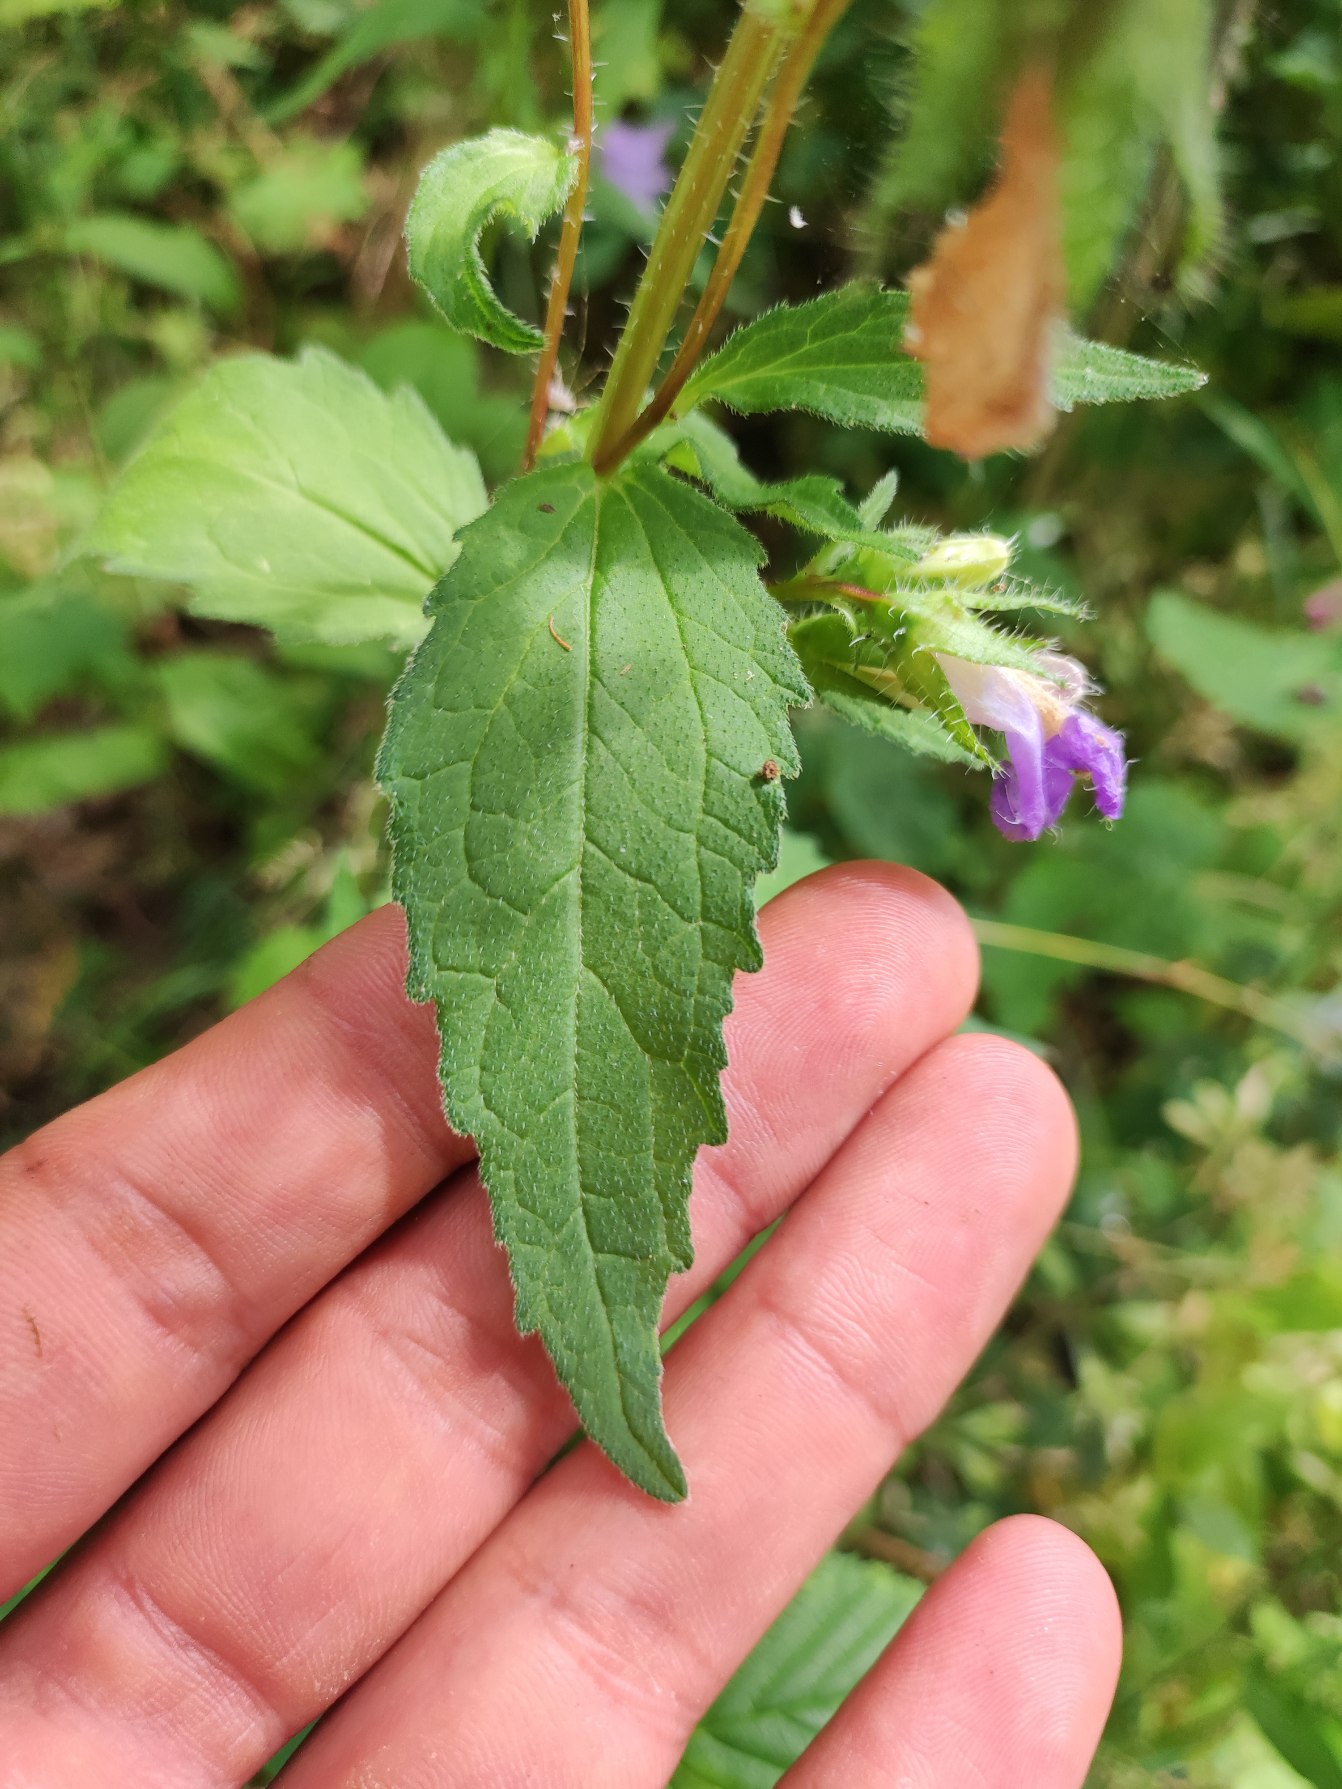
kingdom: Plantae
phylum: Tracheophyta
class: Magnoliopsida
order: Asterales
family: Campanulaceae
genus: Campanula
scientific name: Campanula trachelium
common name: Nælde-klokke
